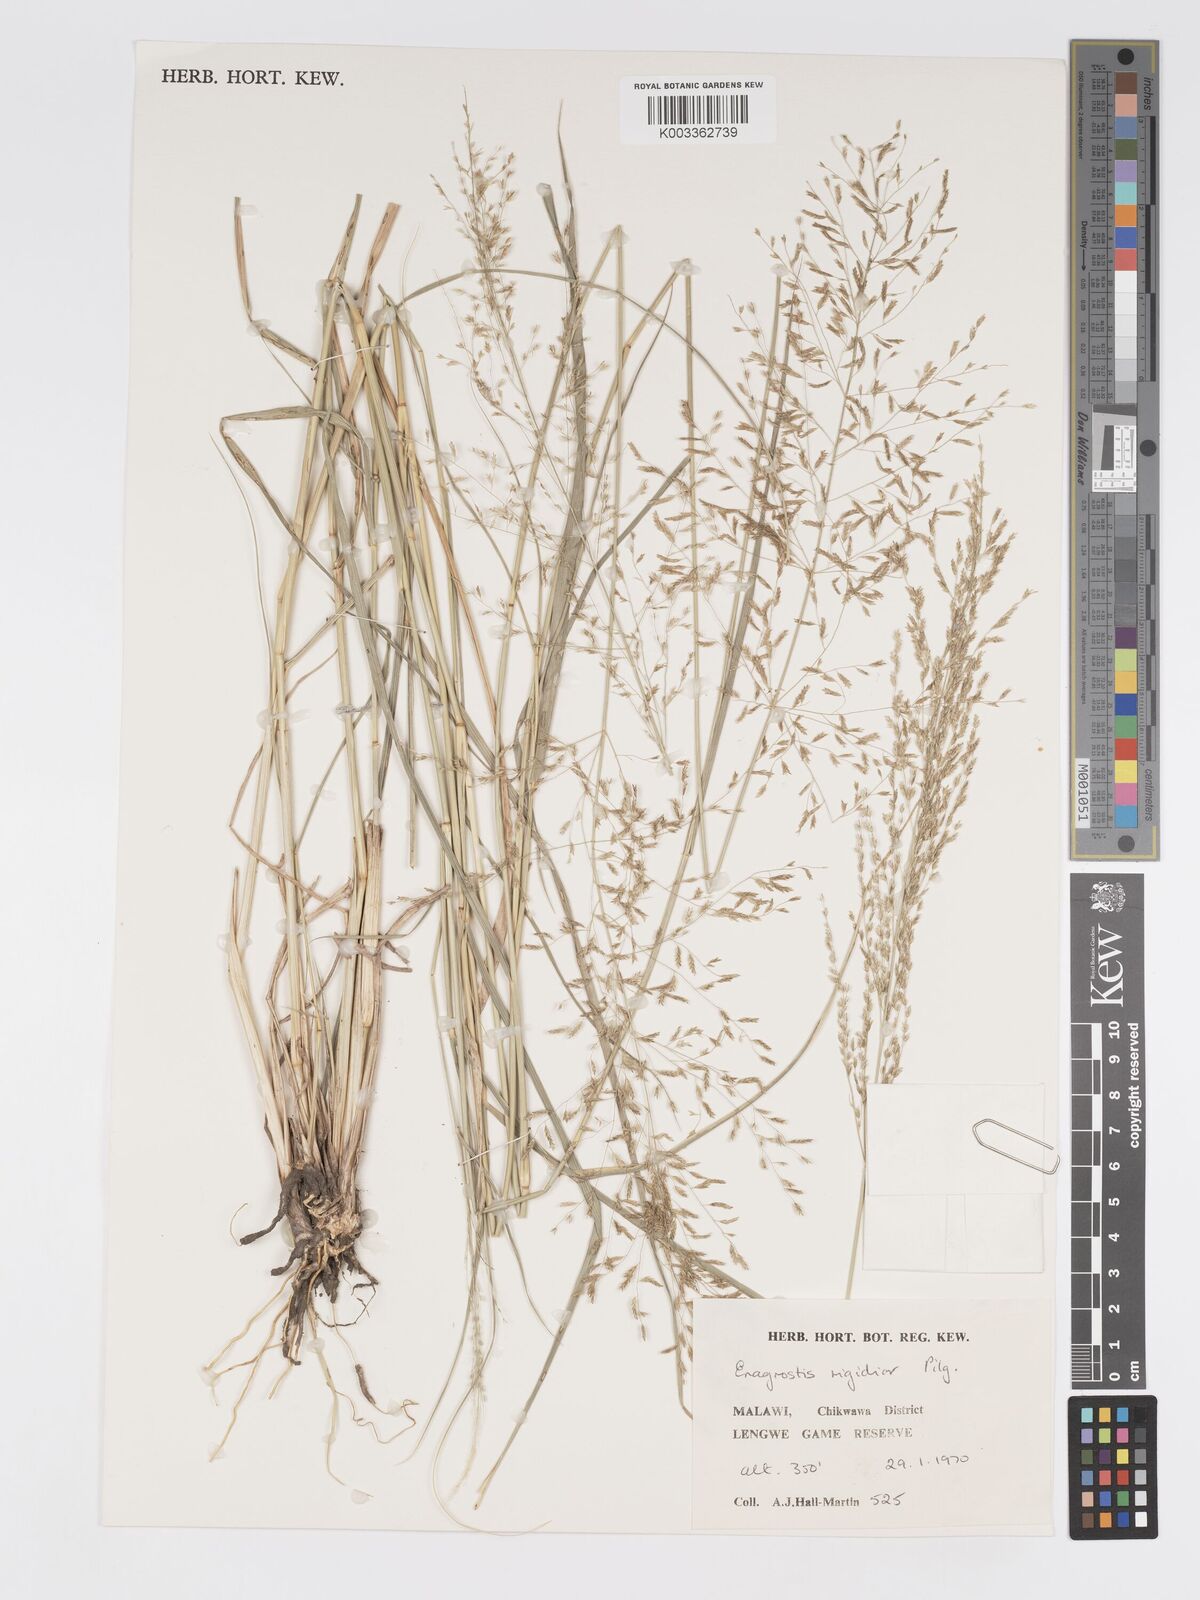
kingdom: Plantae
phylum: Tracheophyta
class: Liliopsida
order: Poales
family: Poaceae
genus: Eragrostis
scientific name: Eragrostis cylindriflora
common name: Cylinderflower lovegrass
